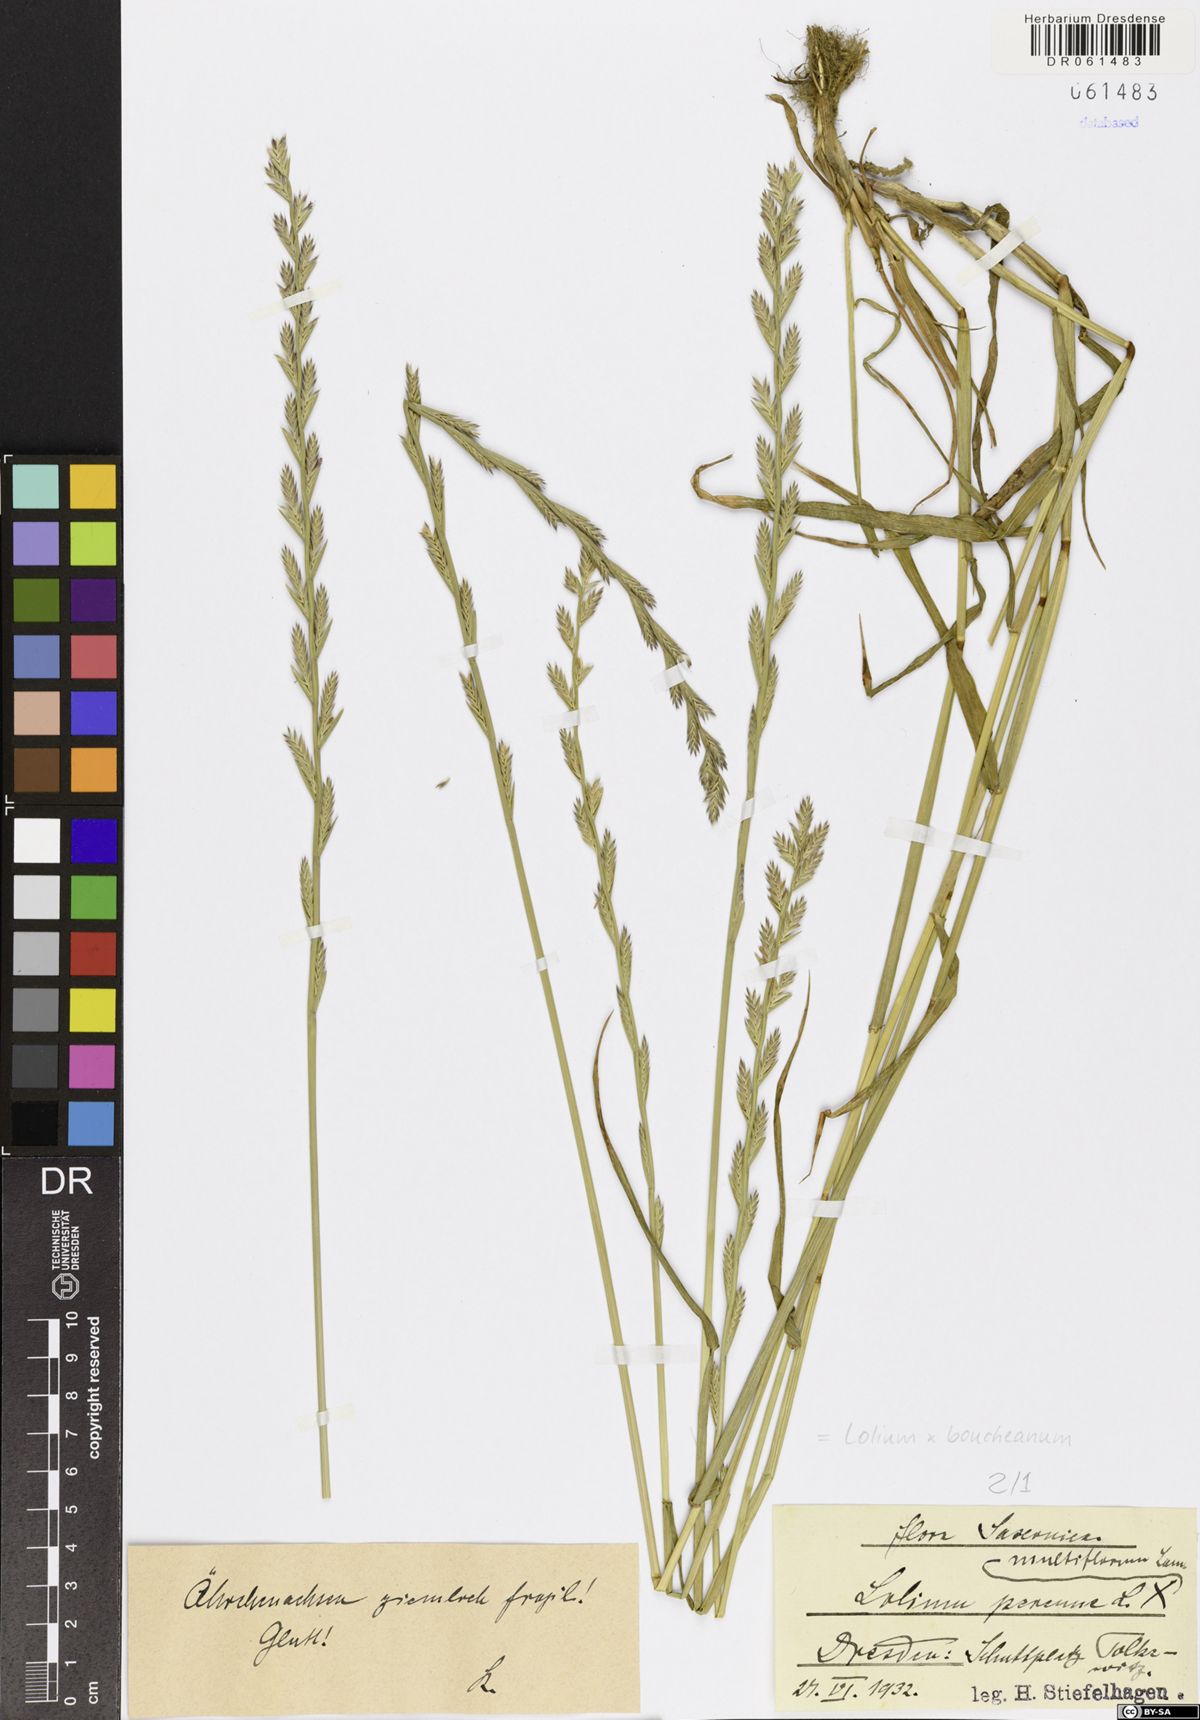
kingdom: Plantae
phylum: Tracheophyta
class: Liliopsida
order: Poales
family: Poaceae
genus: Lolium
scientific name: Lolium boucheanum
